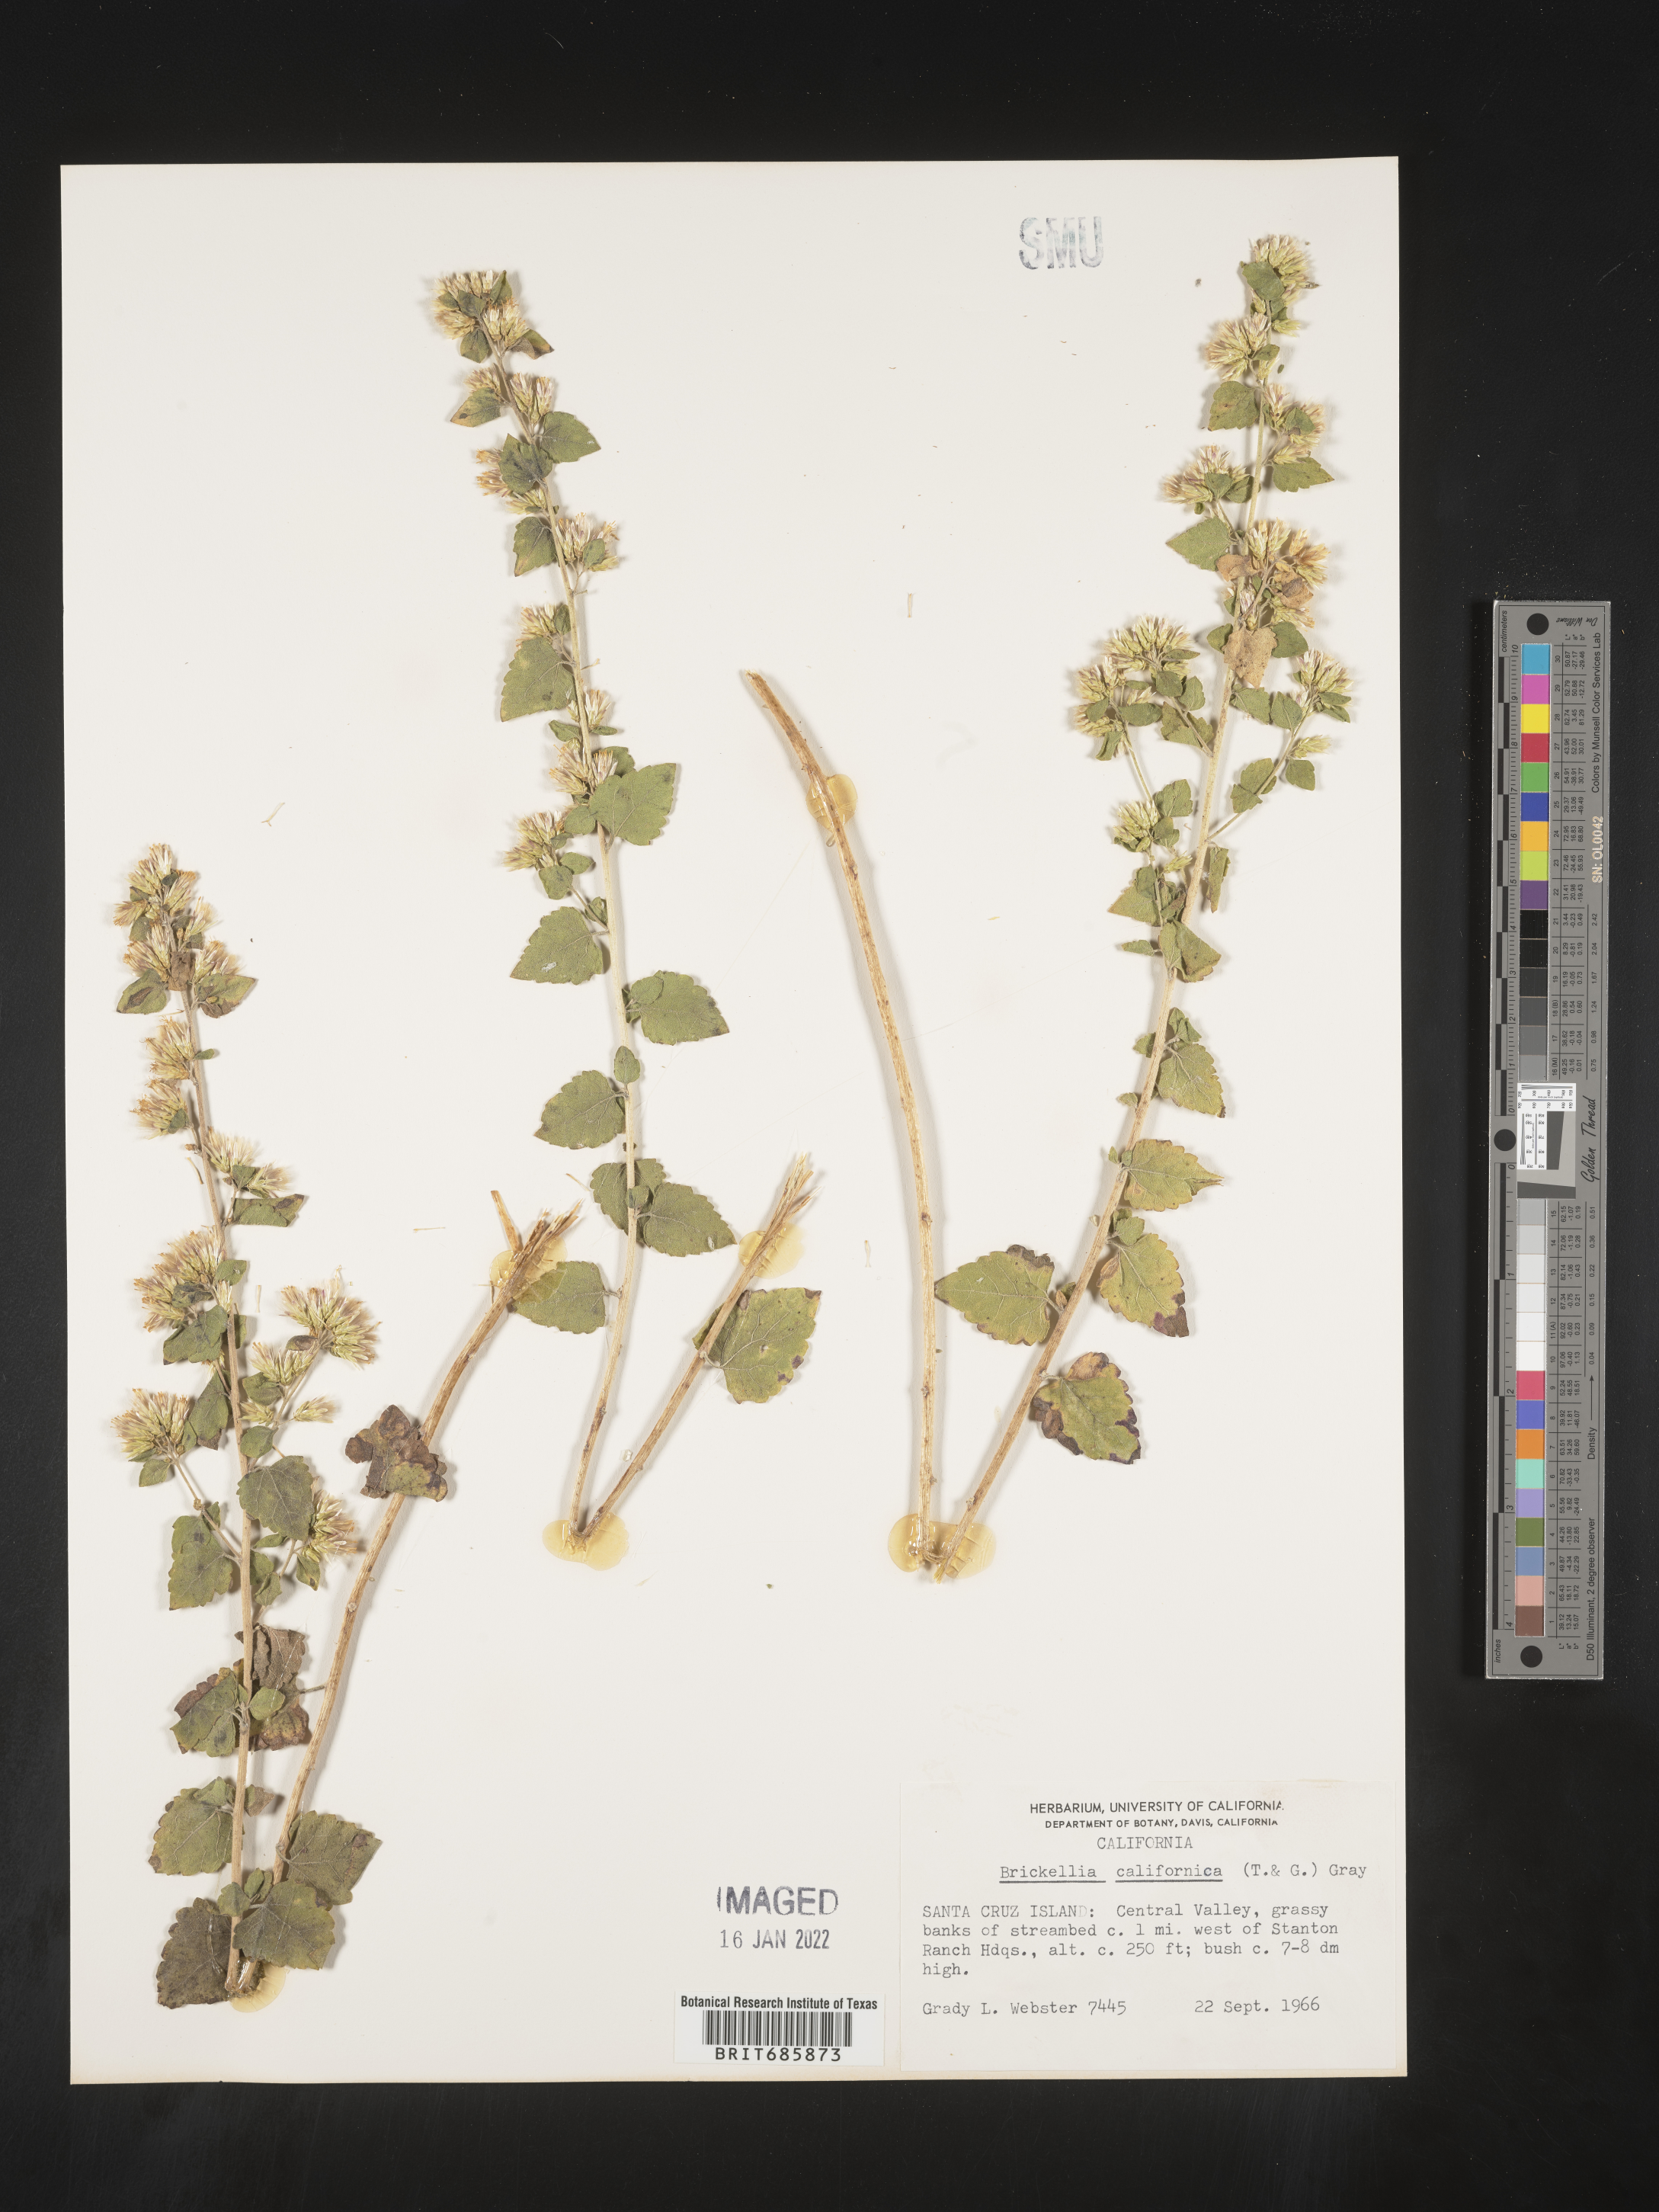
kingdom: Plantae
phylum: Tracheophyta
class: Magnoliopsida
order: Asterales
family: Asteraceae
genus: Brickellia
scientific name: Brickellia californica
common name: California brickellbush
